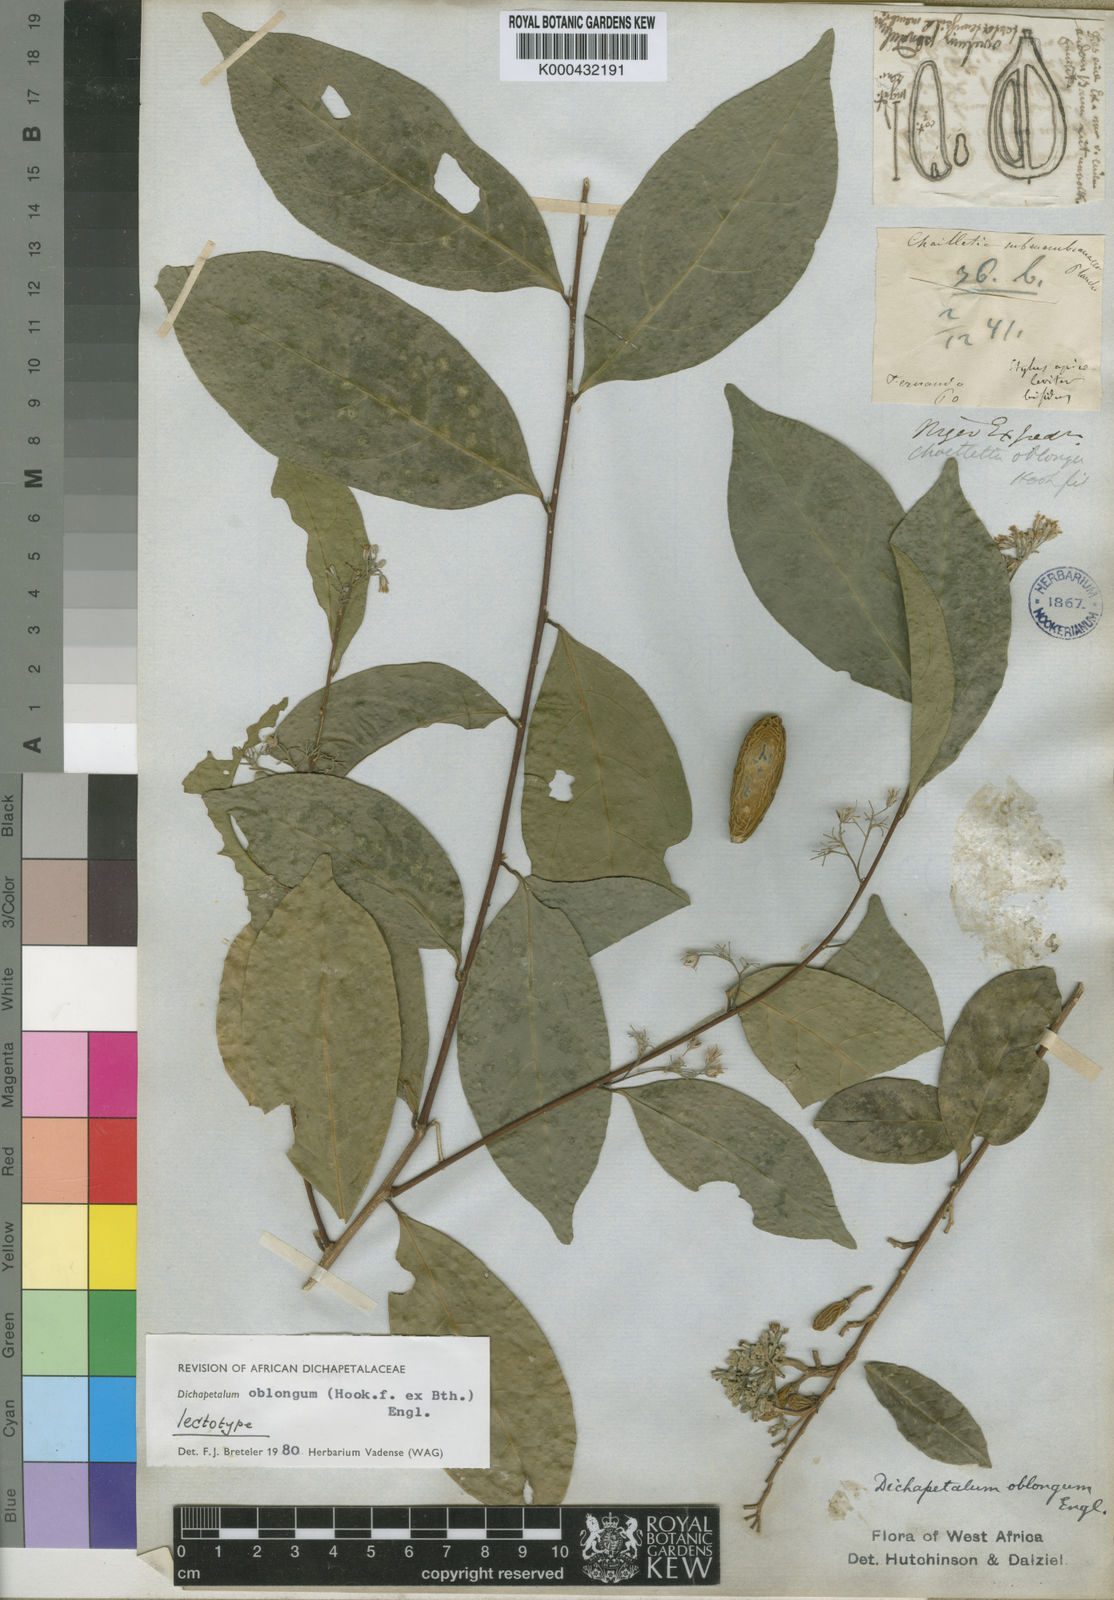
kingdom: Plantae
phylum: Tracheophyta
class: Magnoliopsida
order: Malpighiales
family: Dichapetalaceae
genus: Dichapetalum
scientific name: Dichapetalum oblongum
